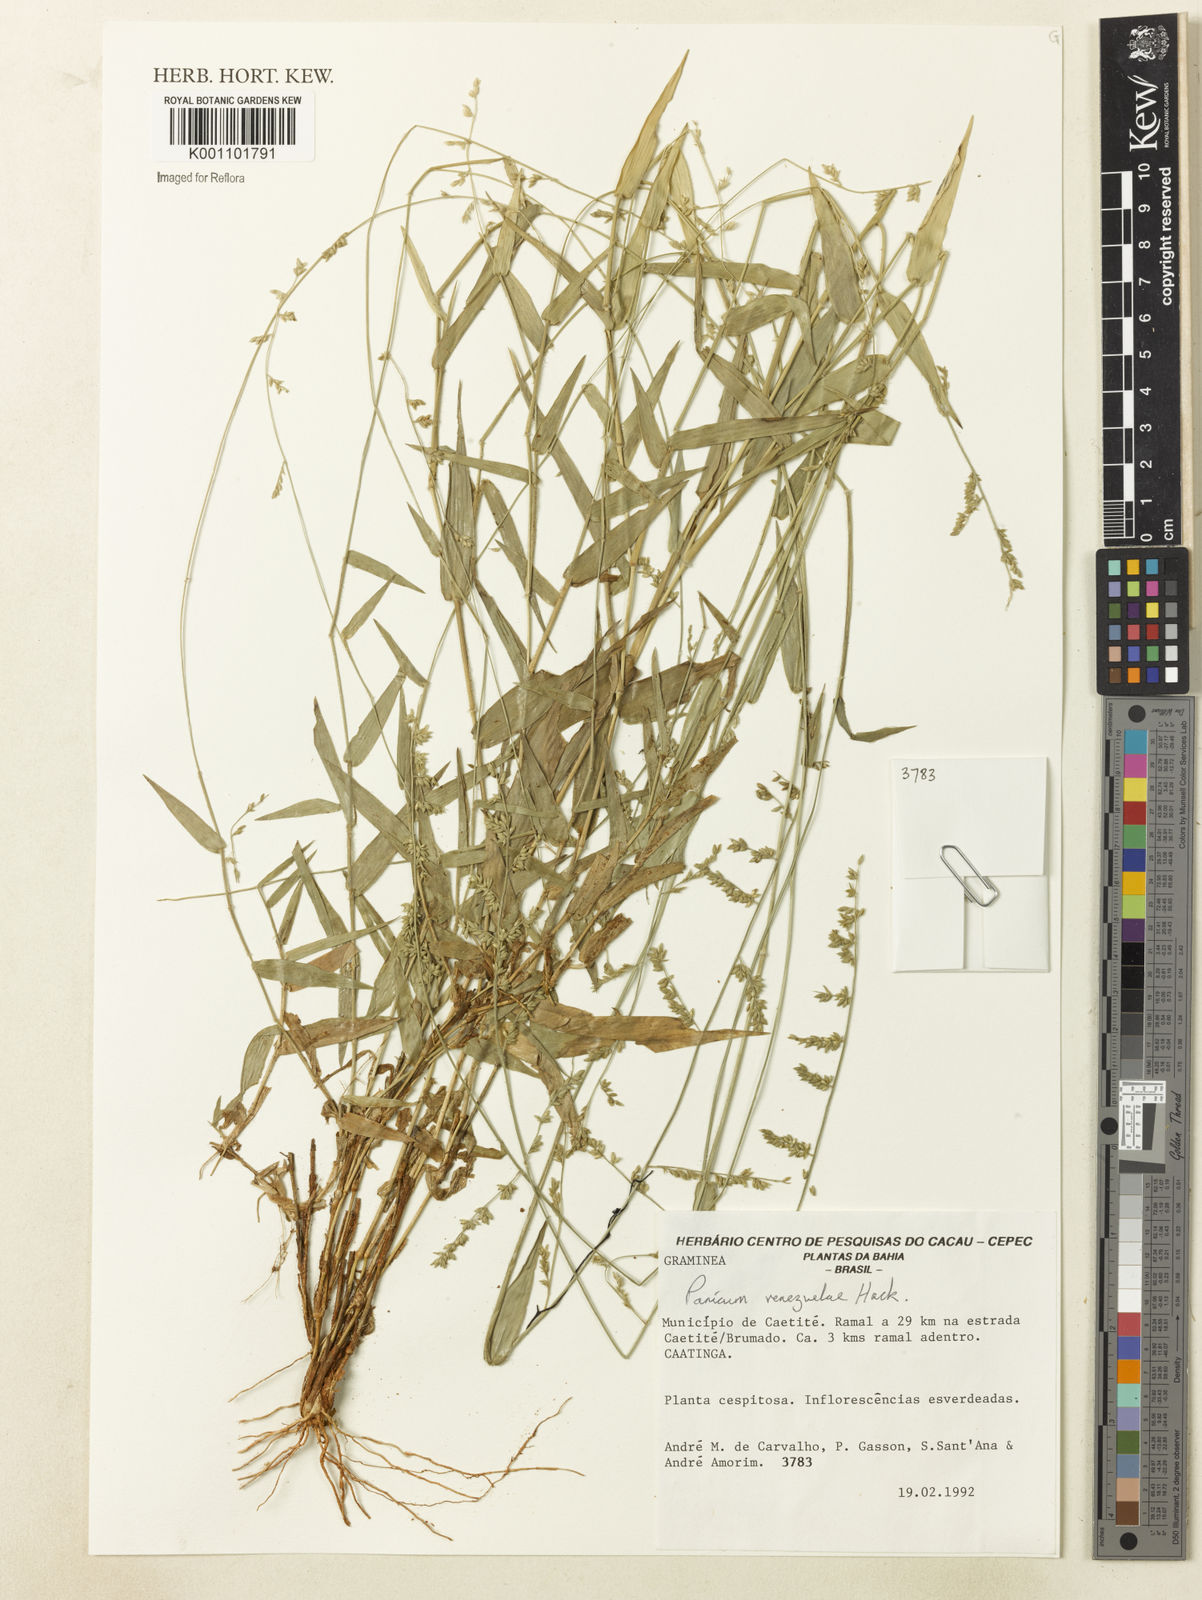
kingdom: Plantae
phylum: Tracheophyta
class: Liliopsida
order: Poales
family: Poaceae
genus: Panicum
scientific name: Panicum venezuelae
